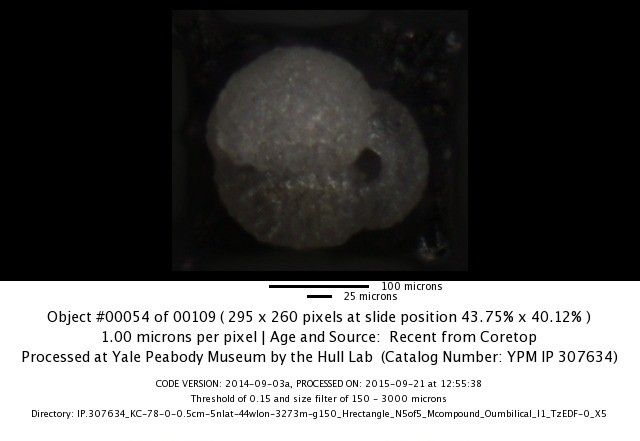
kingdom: Chromista
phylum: Foraminifera
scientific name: Foraminifera
